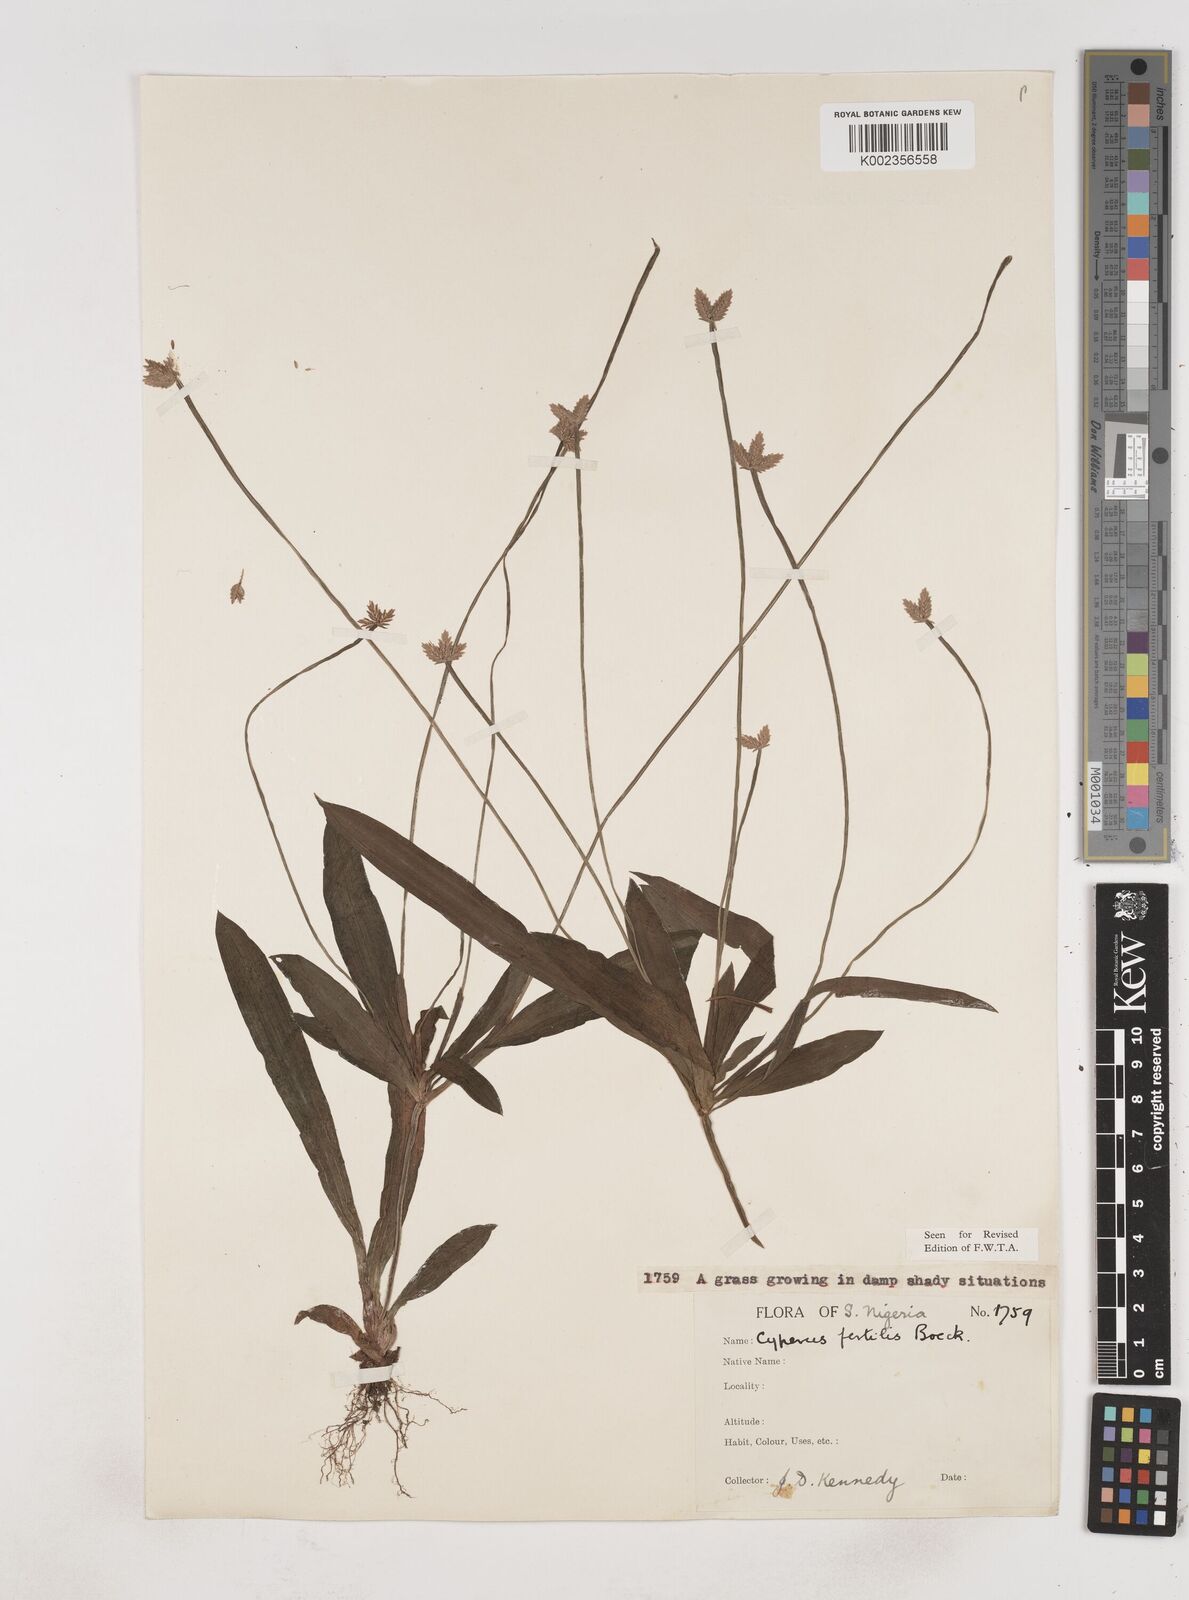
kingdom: Plantae
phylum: Tracheophyta
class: Liliopsida
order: Poales
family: Cyperaceae
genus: Cyperus
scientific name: Cyperus fertilis
